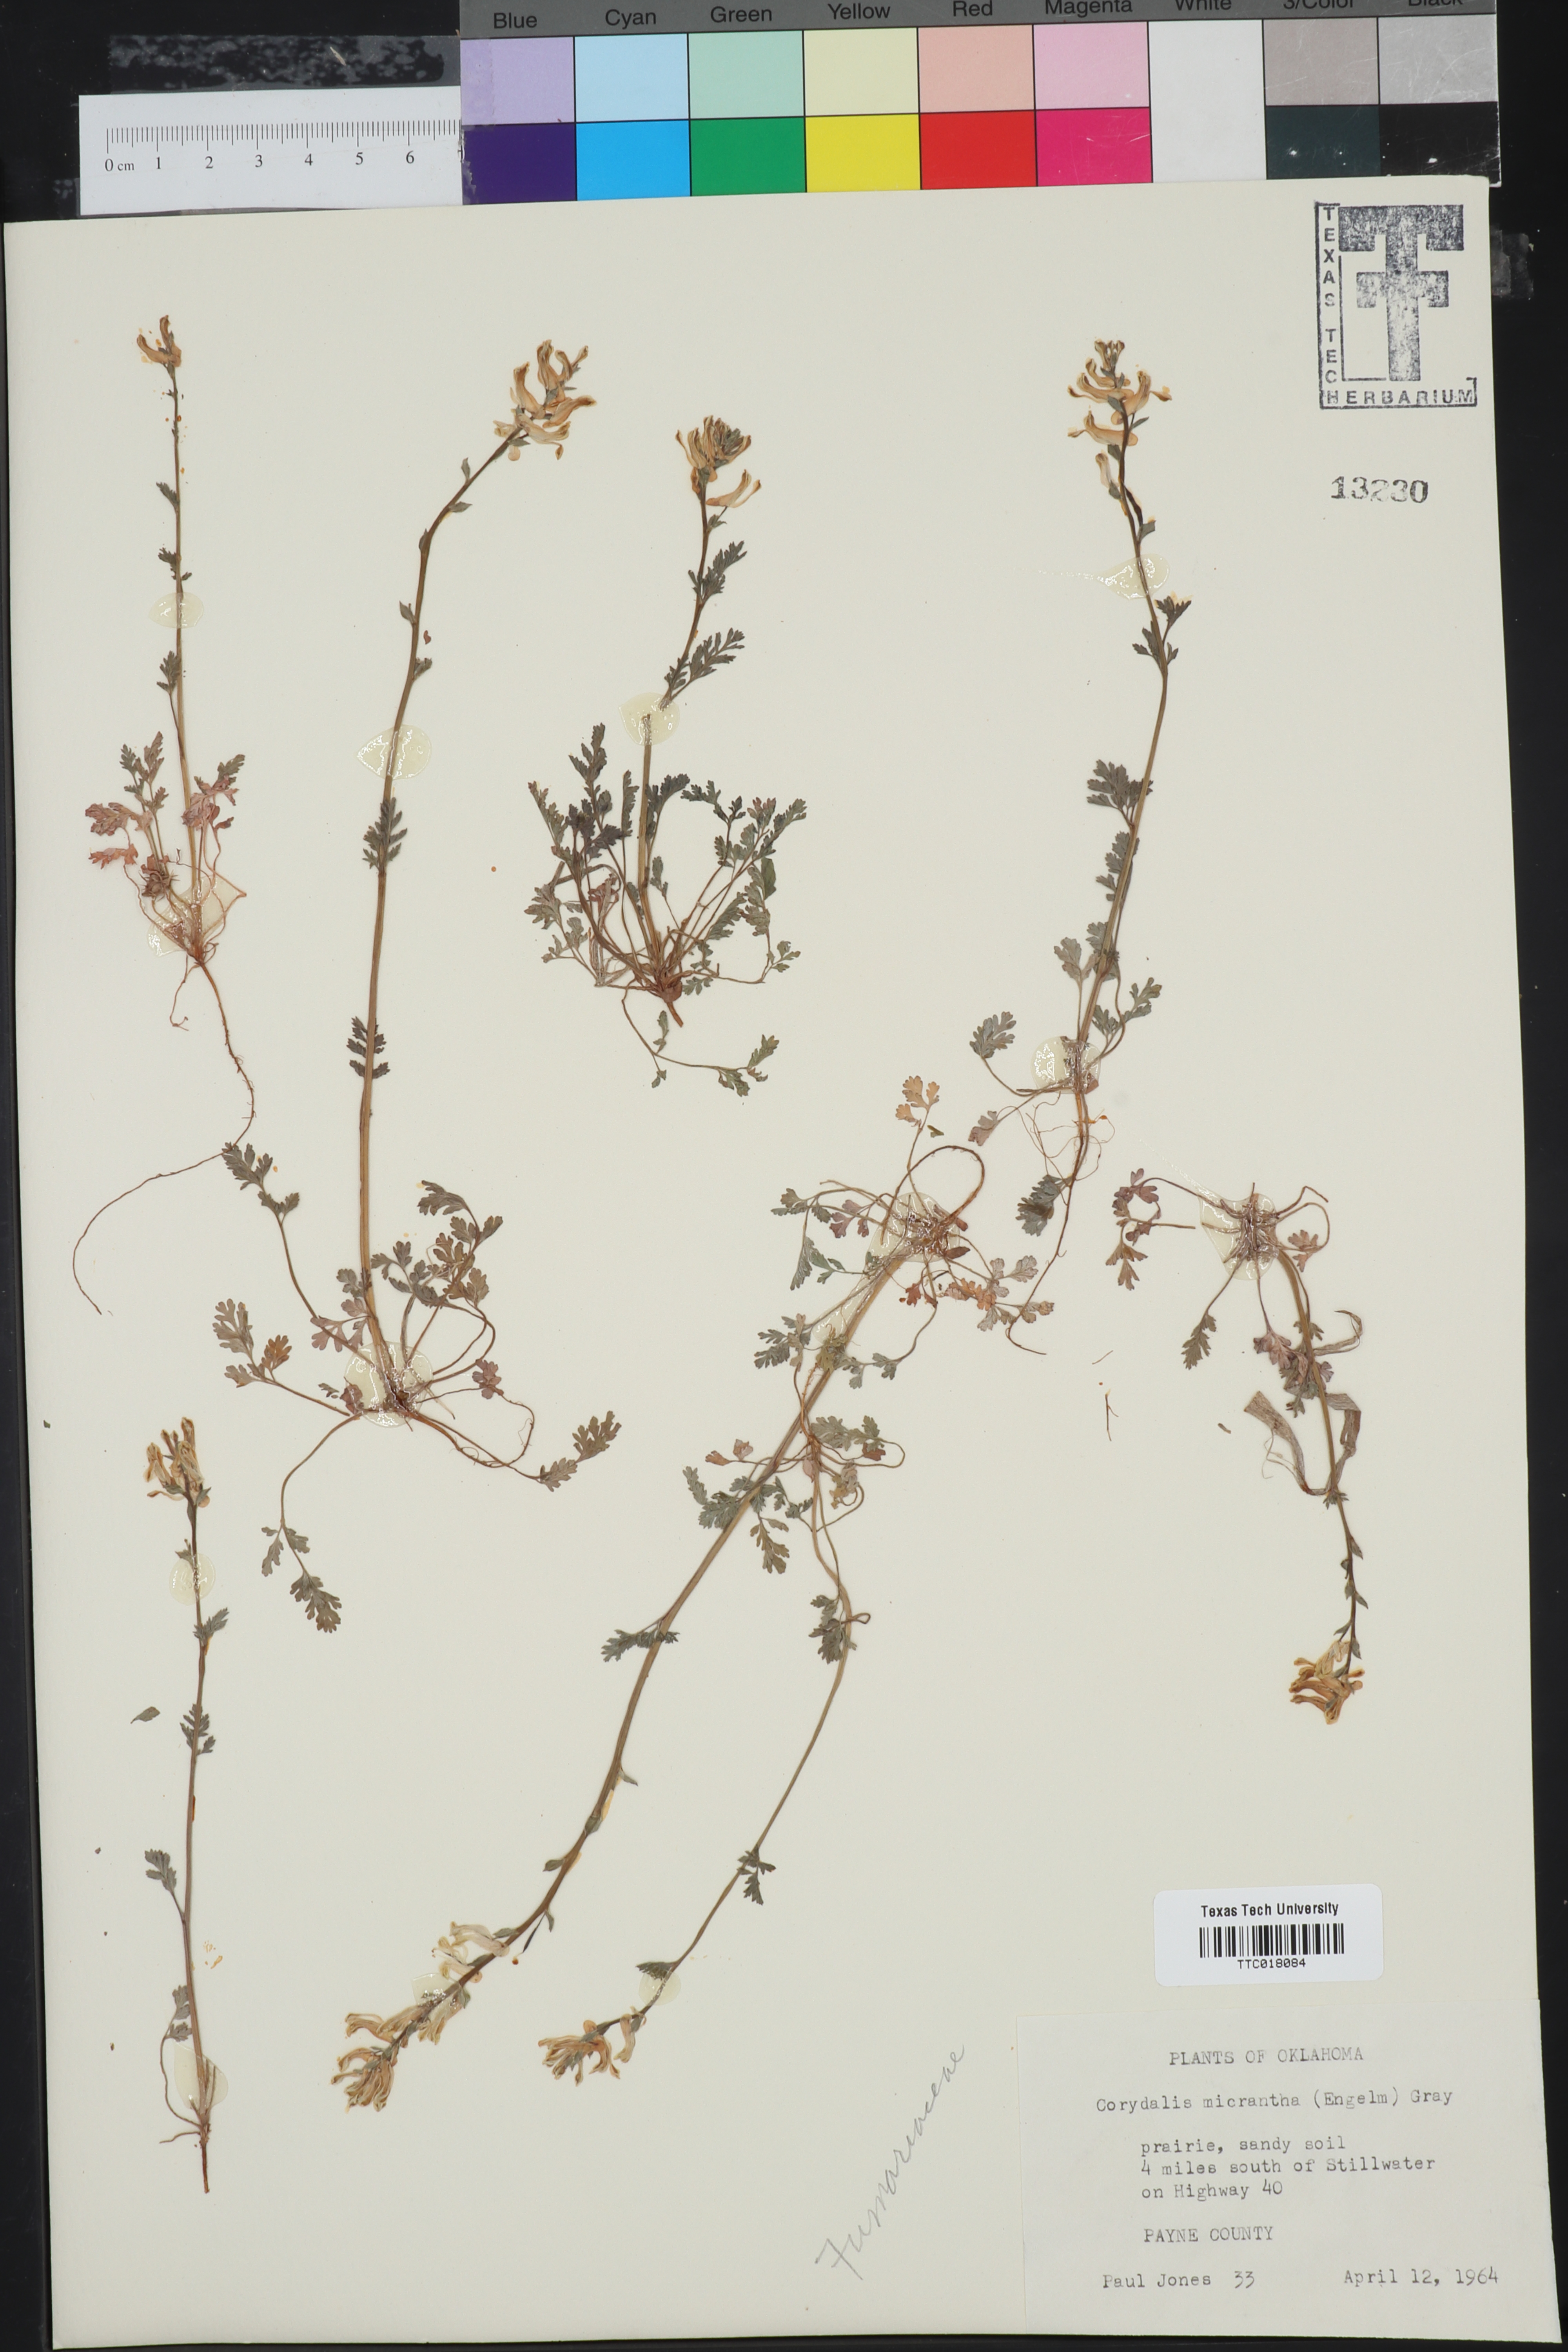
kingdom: Plantae
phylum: Tracheophyta
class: Magnoliopsida
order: Ranunculales
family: Papaveraceae
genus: Corydalis
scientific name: Corydalis micrantha
